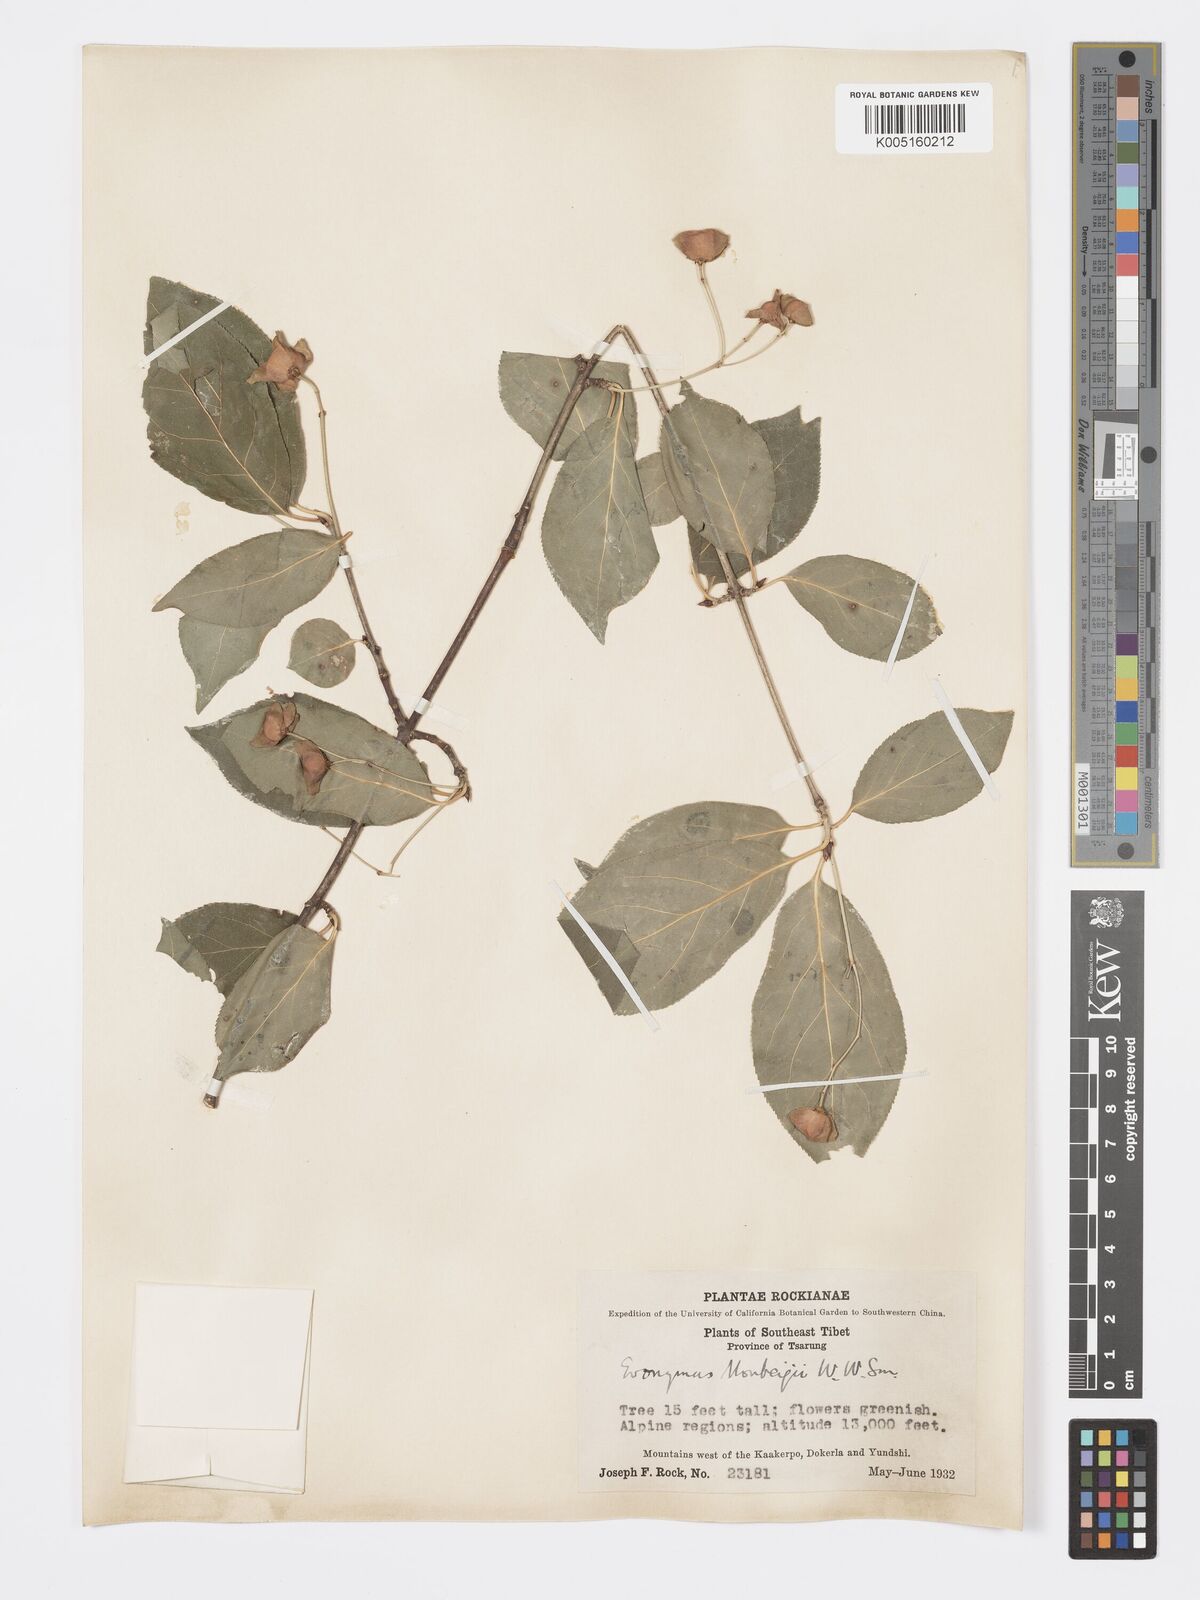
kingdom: Plantae
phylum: Tracheophyta
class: Magnoliopsida
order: Celastrales
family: Celastraceae
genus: Euonymus
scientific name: Euonymus sanguineus
